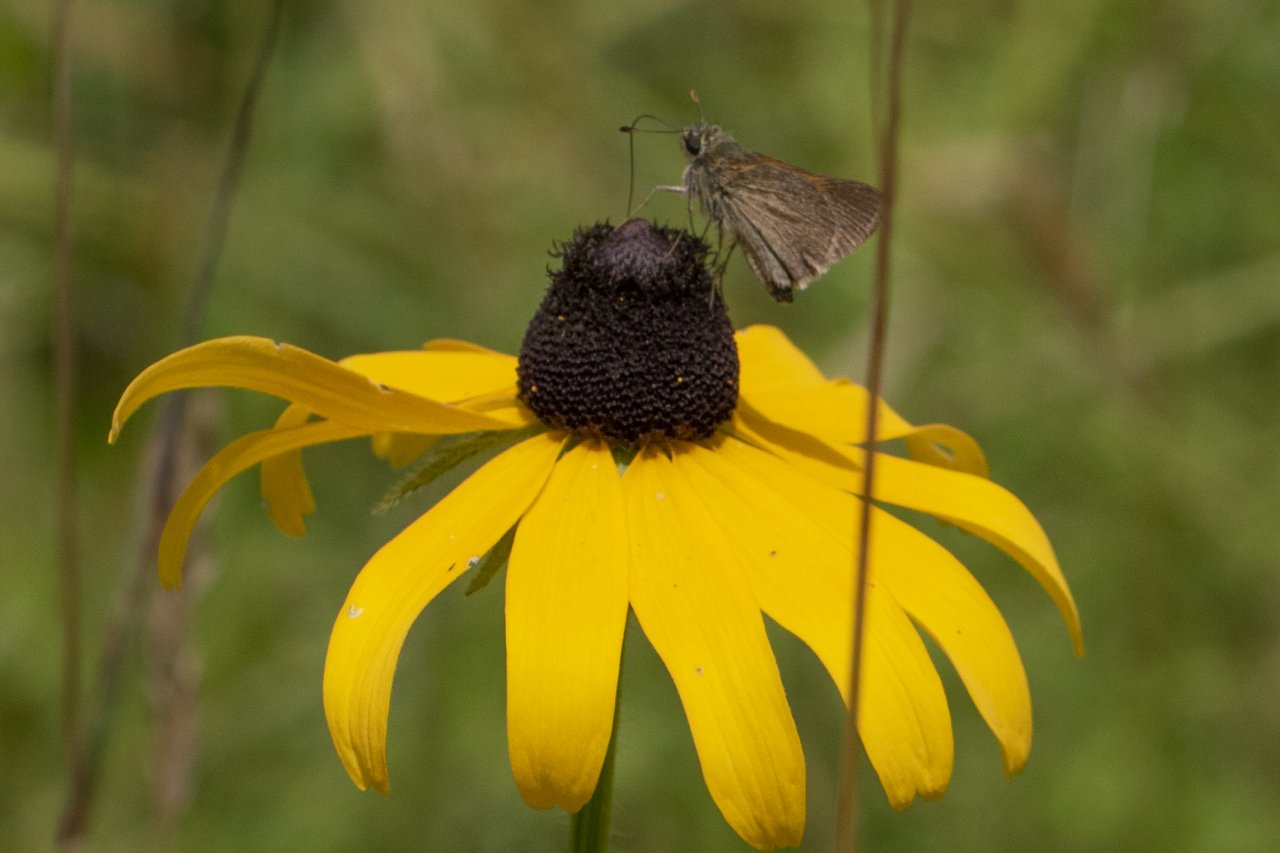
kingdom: Animalia
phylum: Arthropoda
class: Insecta
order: Lepidoptera
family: Hesperiidae
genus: Euphyes
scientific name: Euphyes vestris
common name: Dun Skipper
